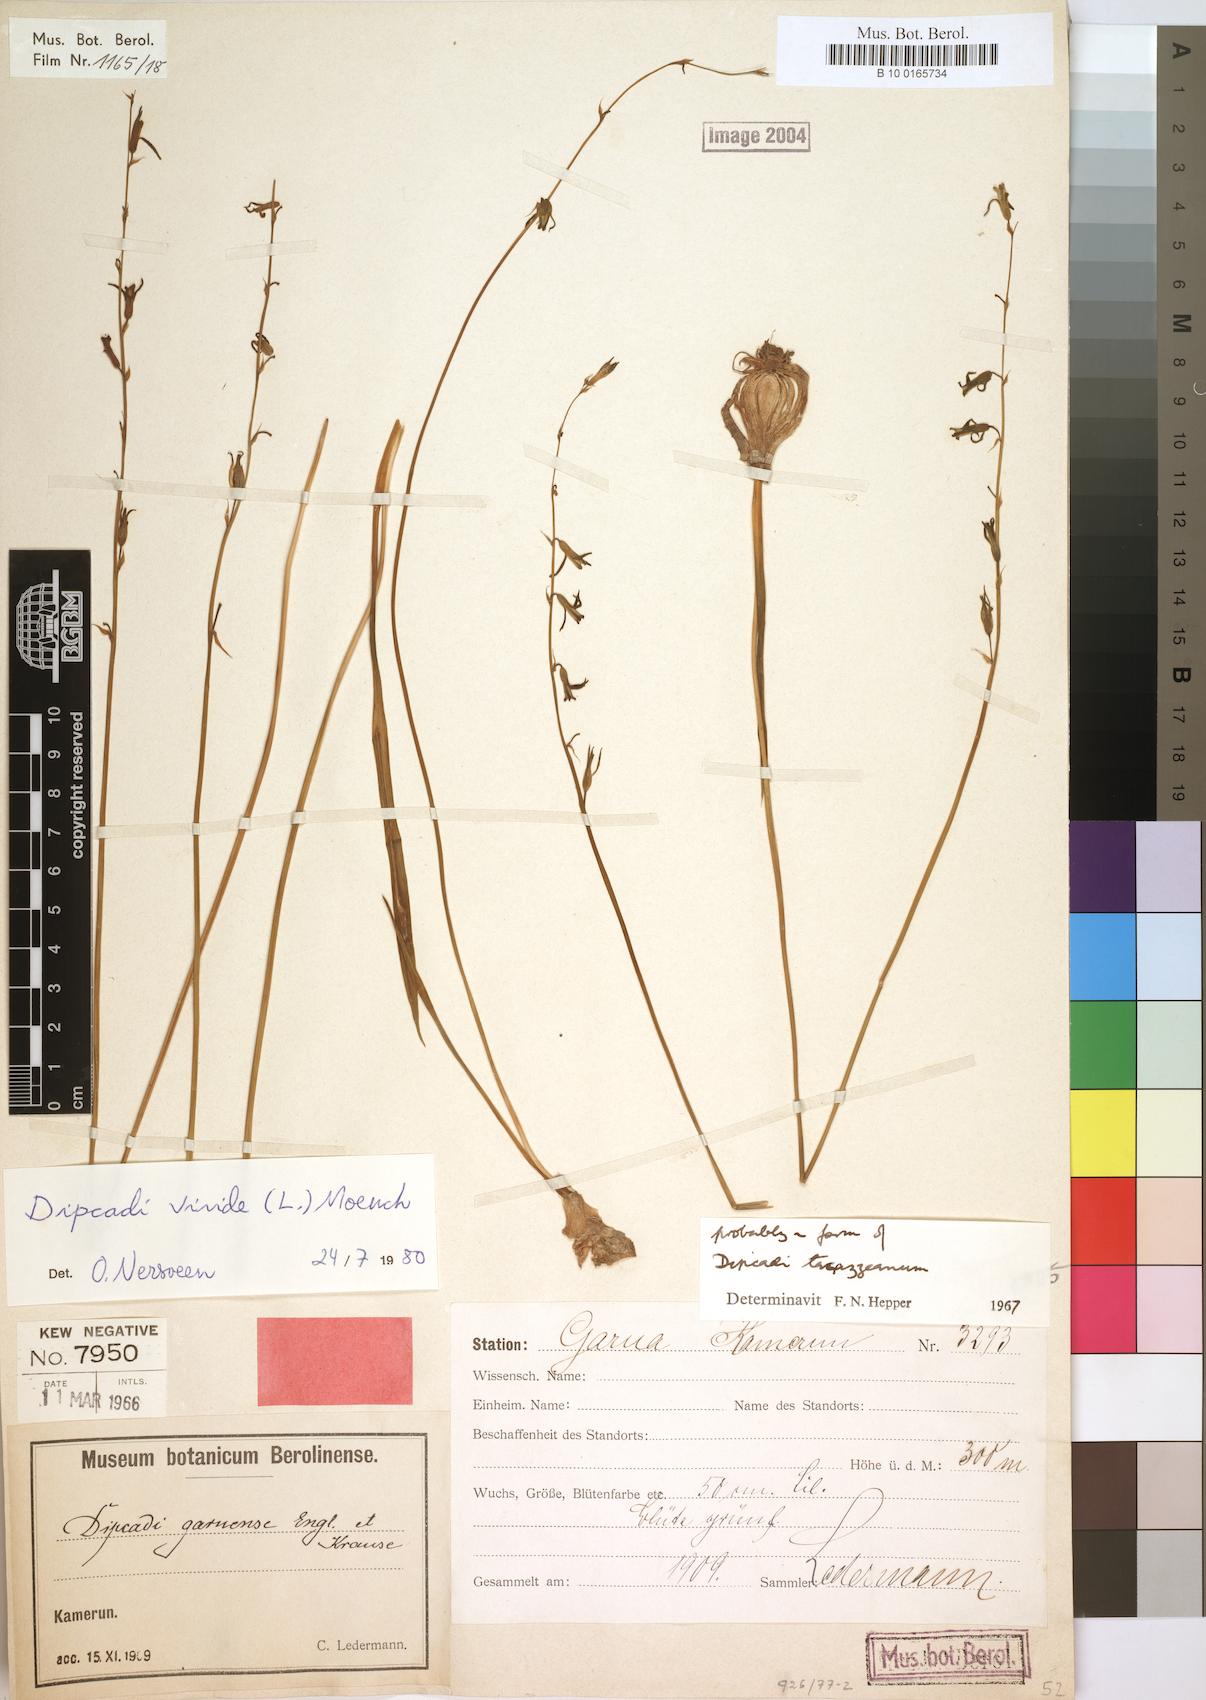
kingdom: Plantae
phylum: Tracheophyta
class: Liliopsida
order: Asparagales
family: Asparagaceae
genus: Dipcadi
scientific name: Dipcadi viride
